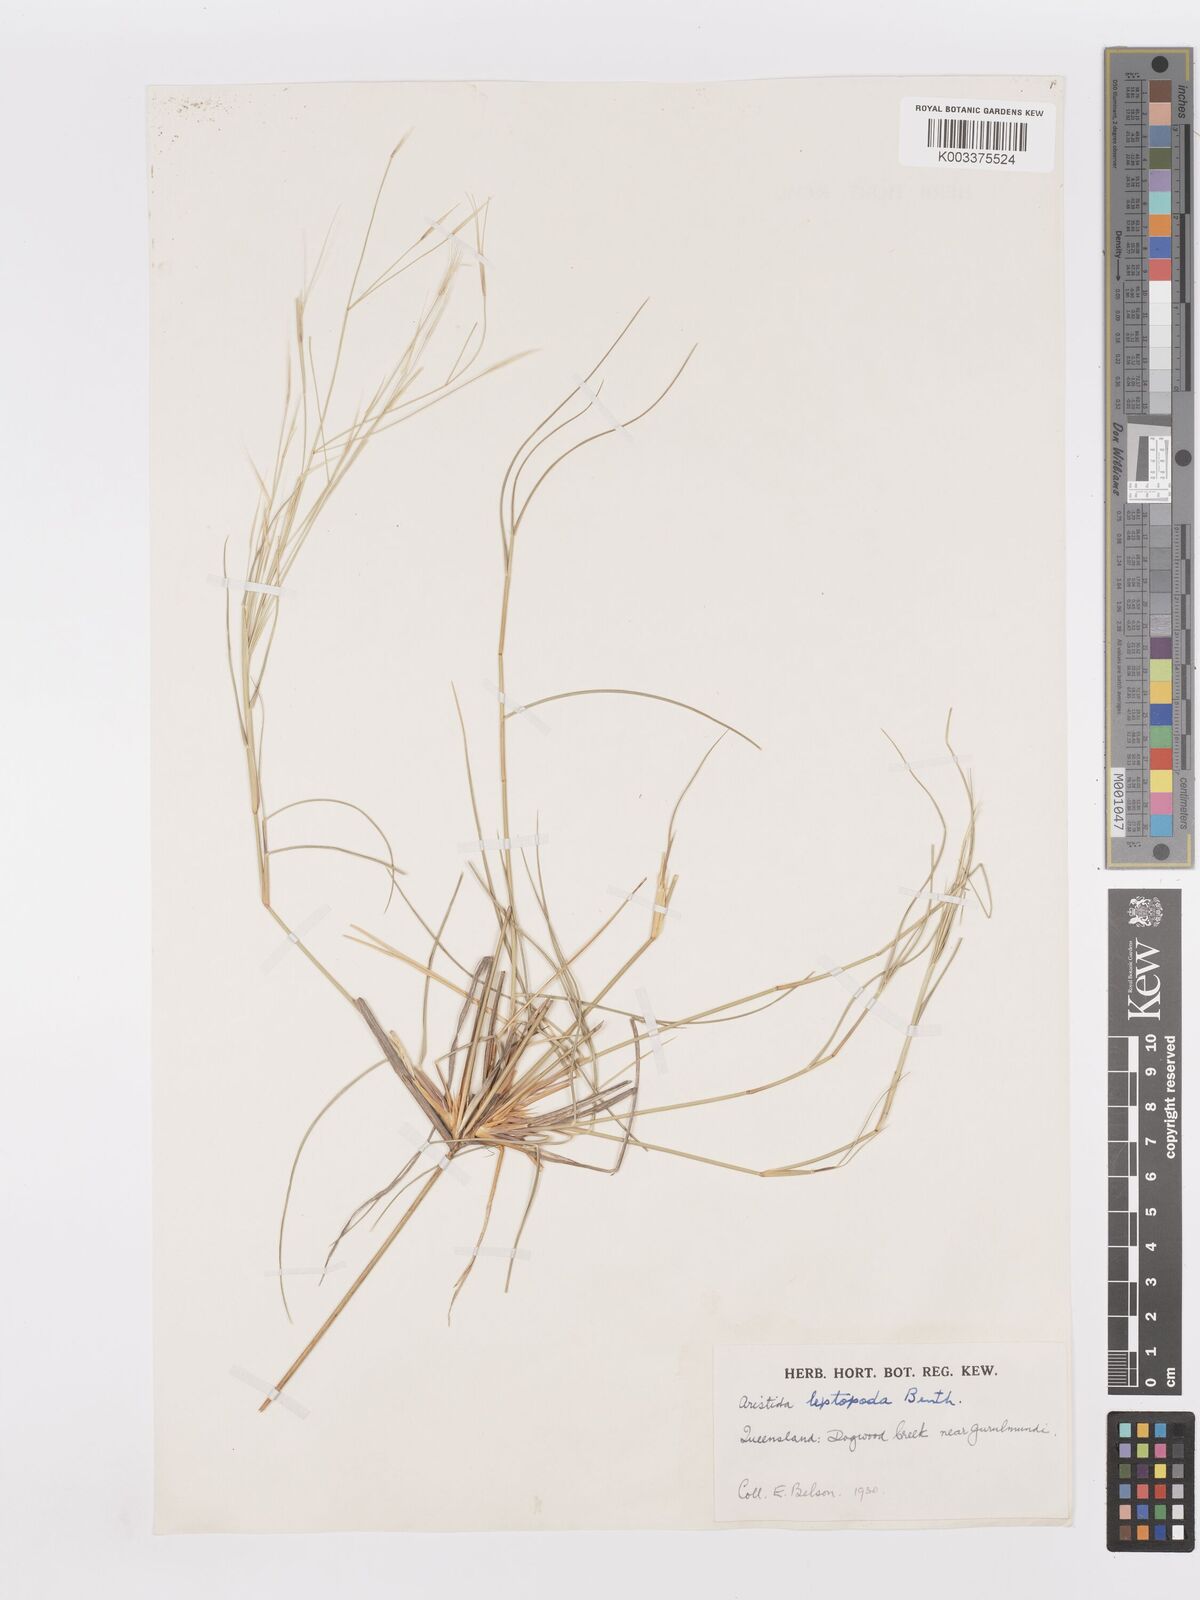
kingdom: Plantae
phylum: Tracheophyta
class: Liliopsida
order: Poales
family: Poaceae
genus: Aristida
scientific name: Aristida leptopoda
